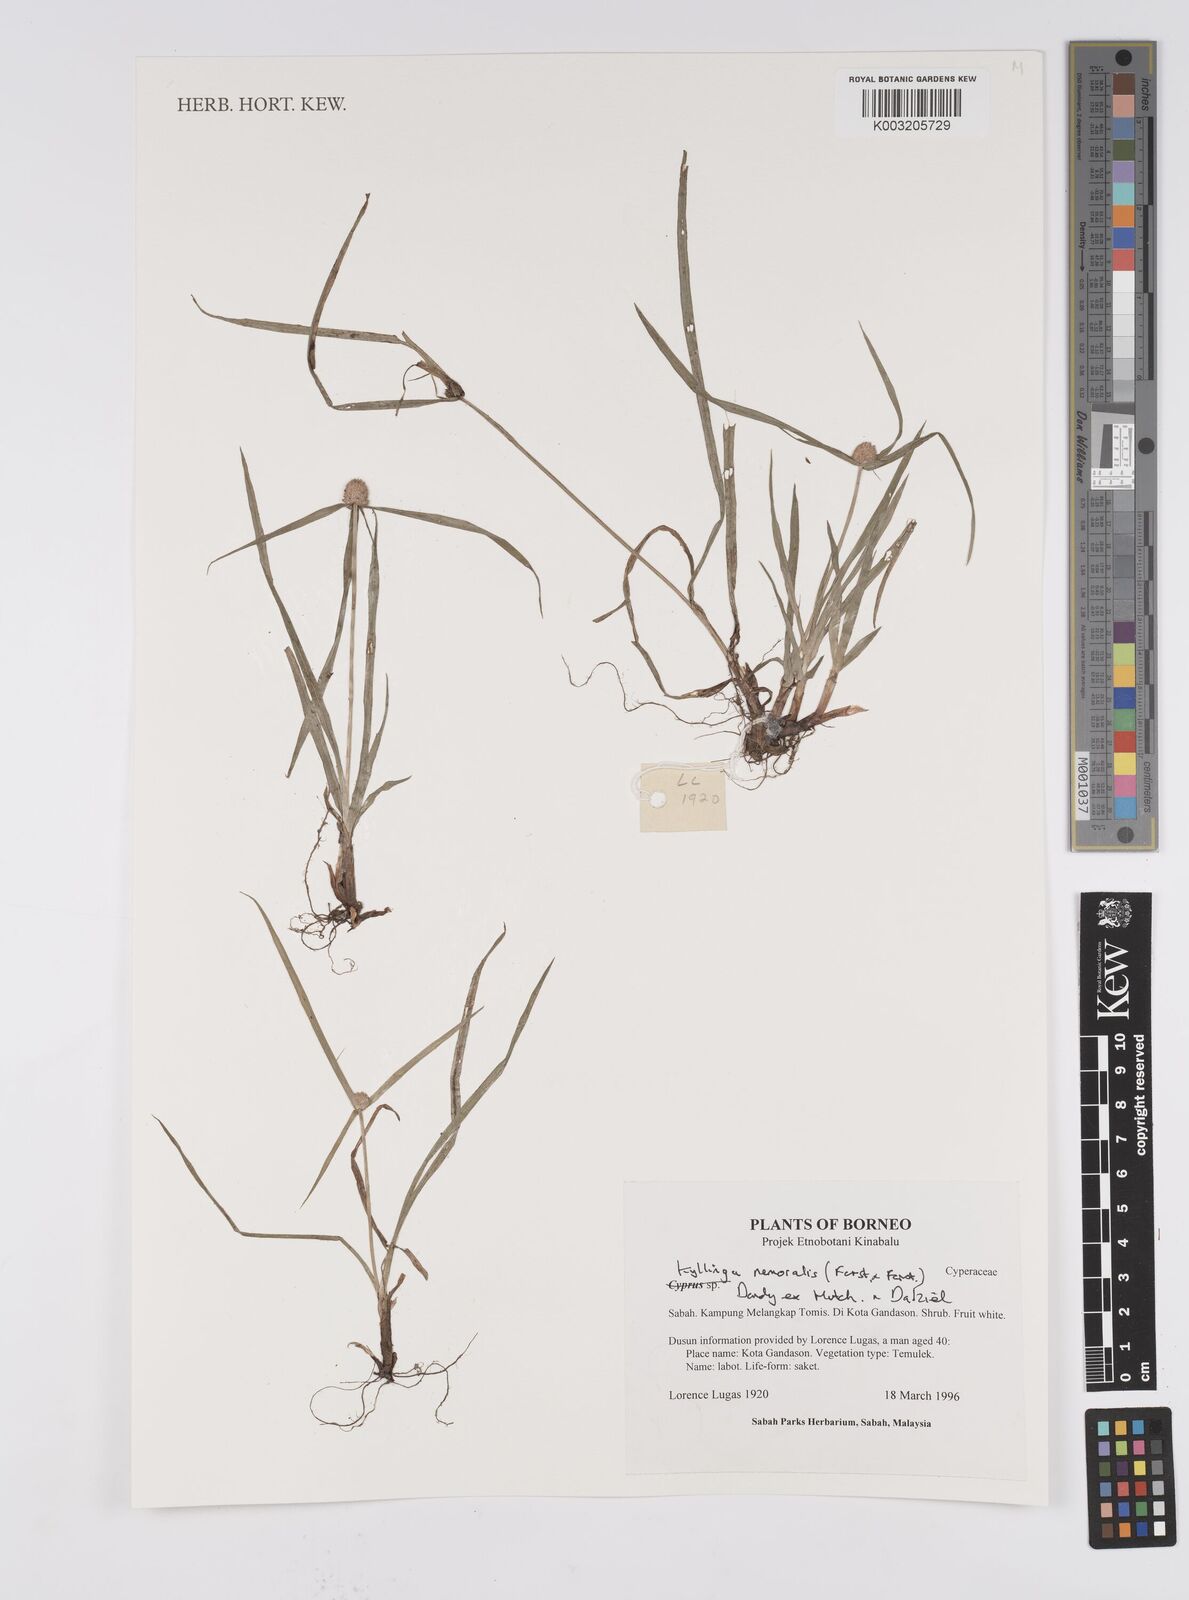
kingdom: Plantae
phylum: Tracheophyta
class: Liliopsida
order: Poales
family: Cyperaceae
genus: Cyperus
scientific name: Cyperus nemoralis
